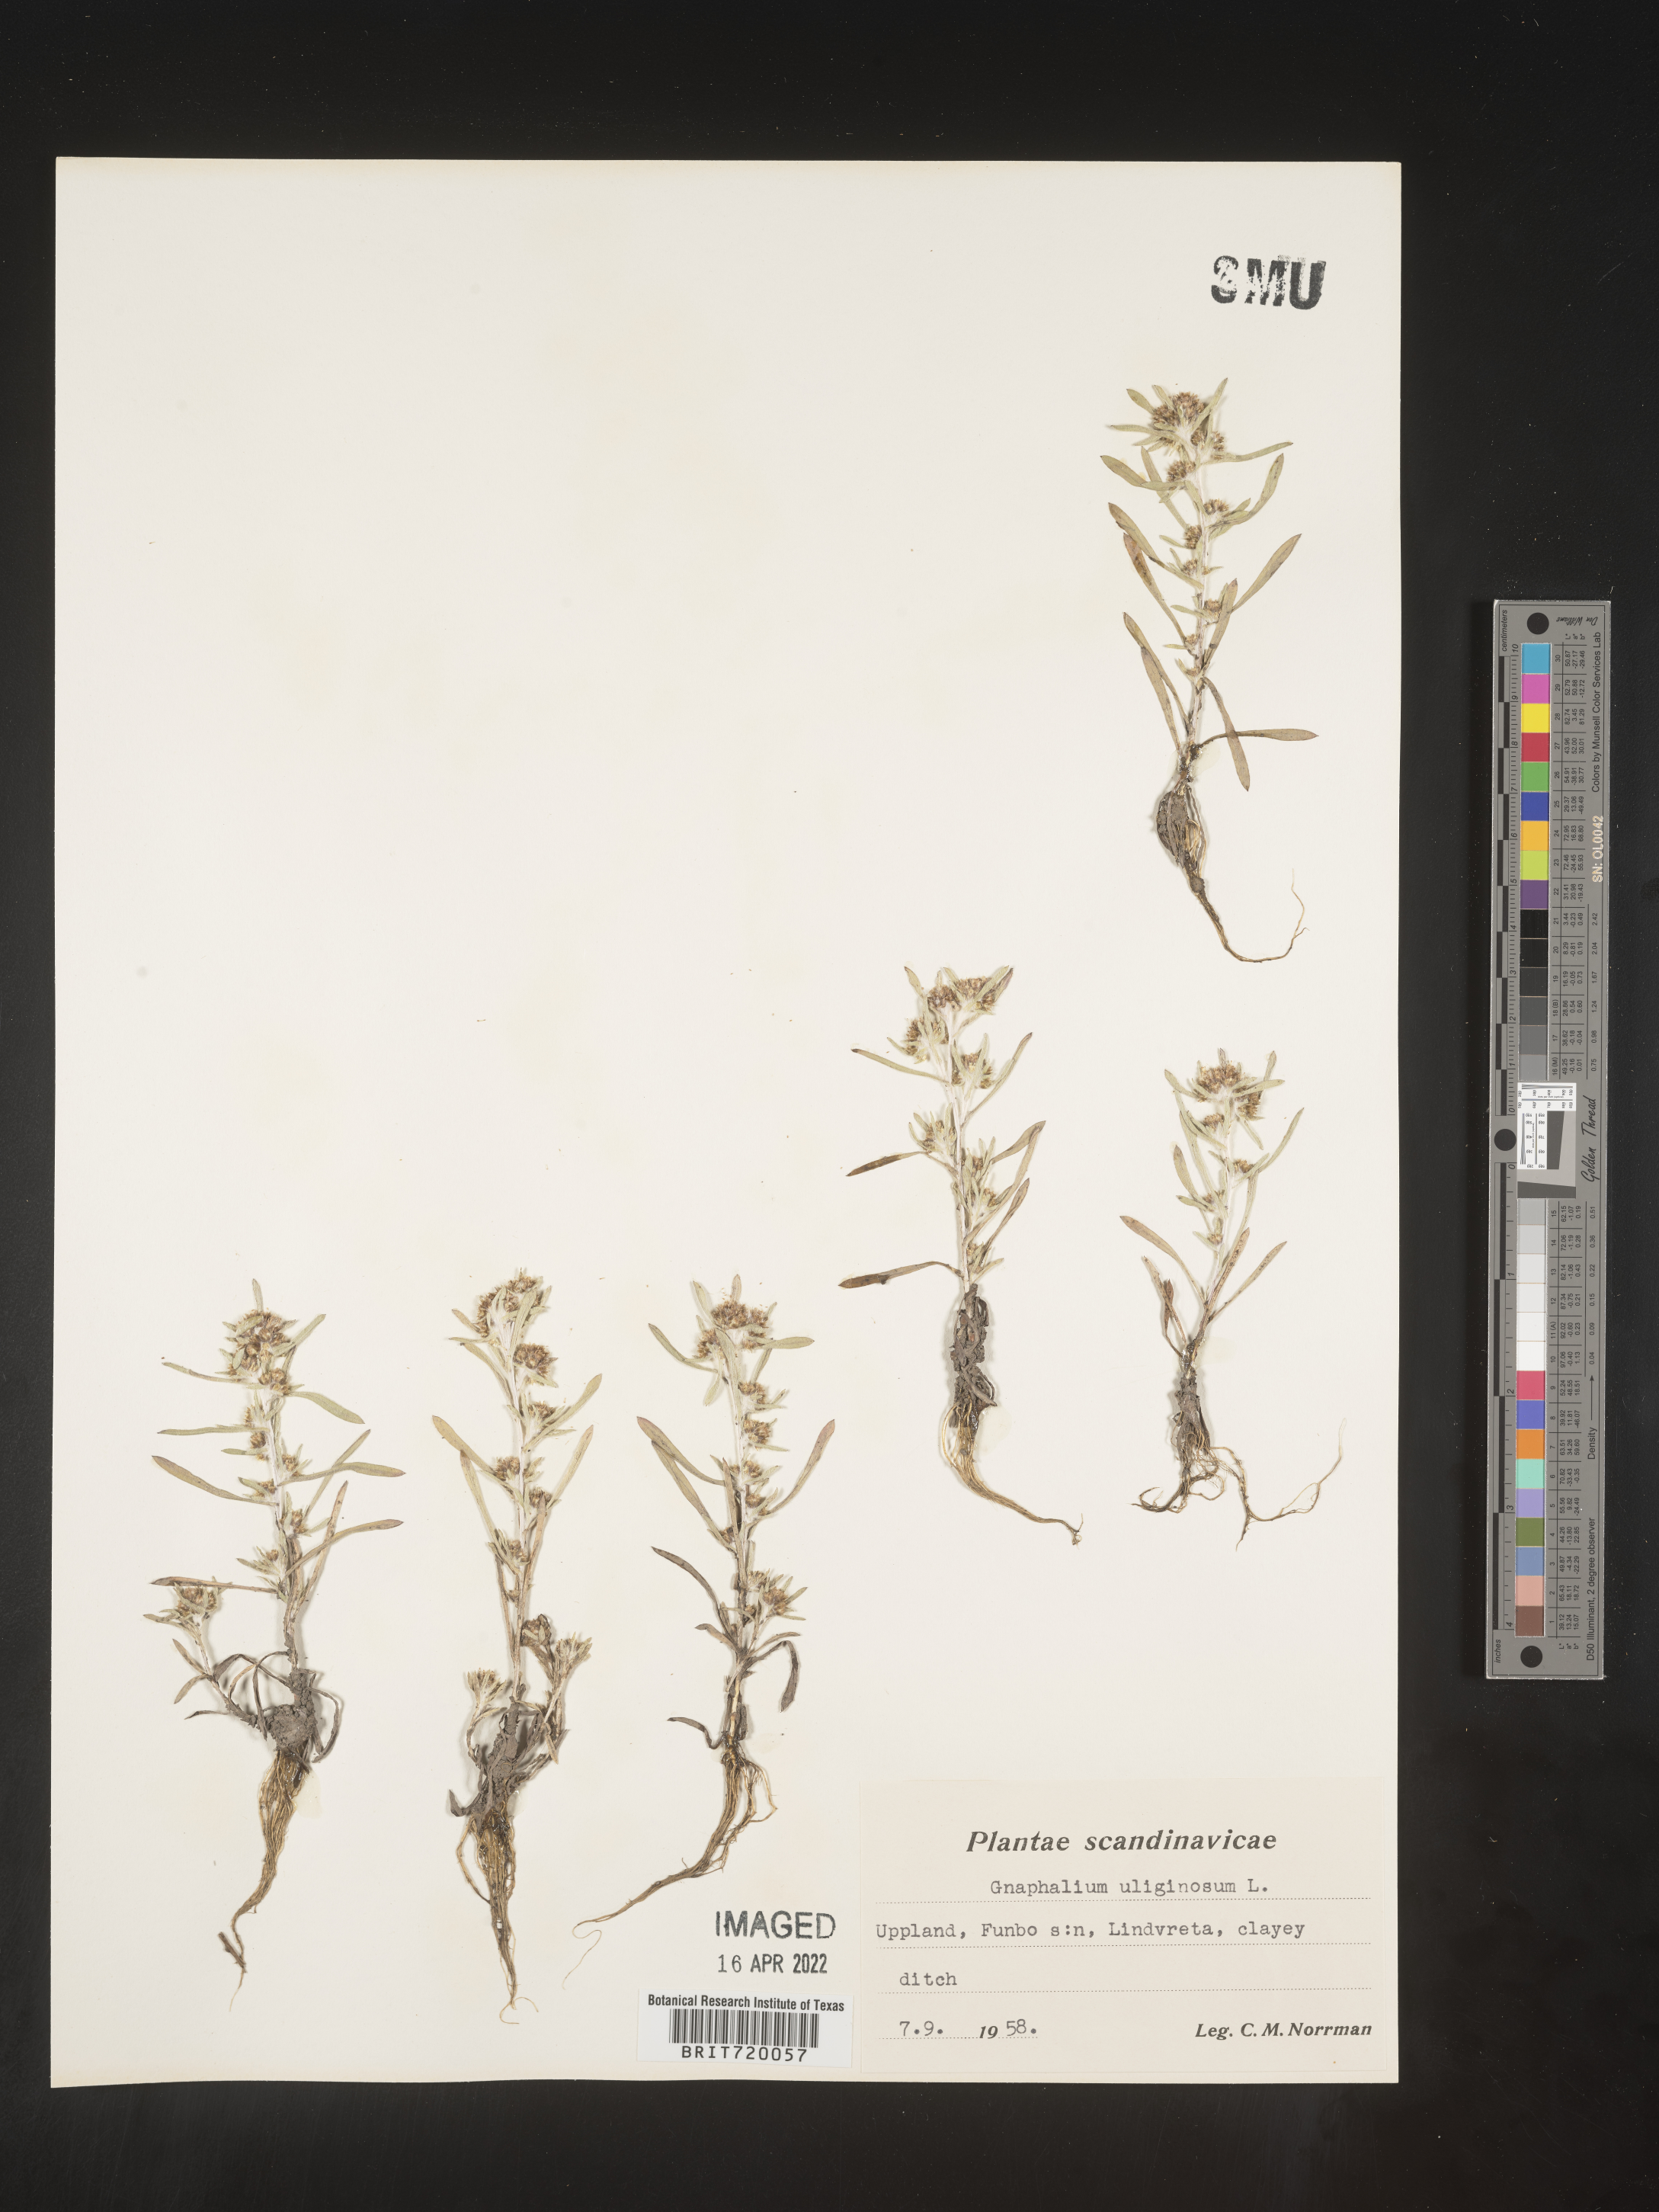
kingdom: Plantae
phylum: Tracheophyta
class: Magnoliopsida
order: Asterales
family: Asteraceae
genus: Gnaphalium
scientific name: Gnaphalium
